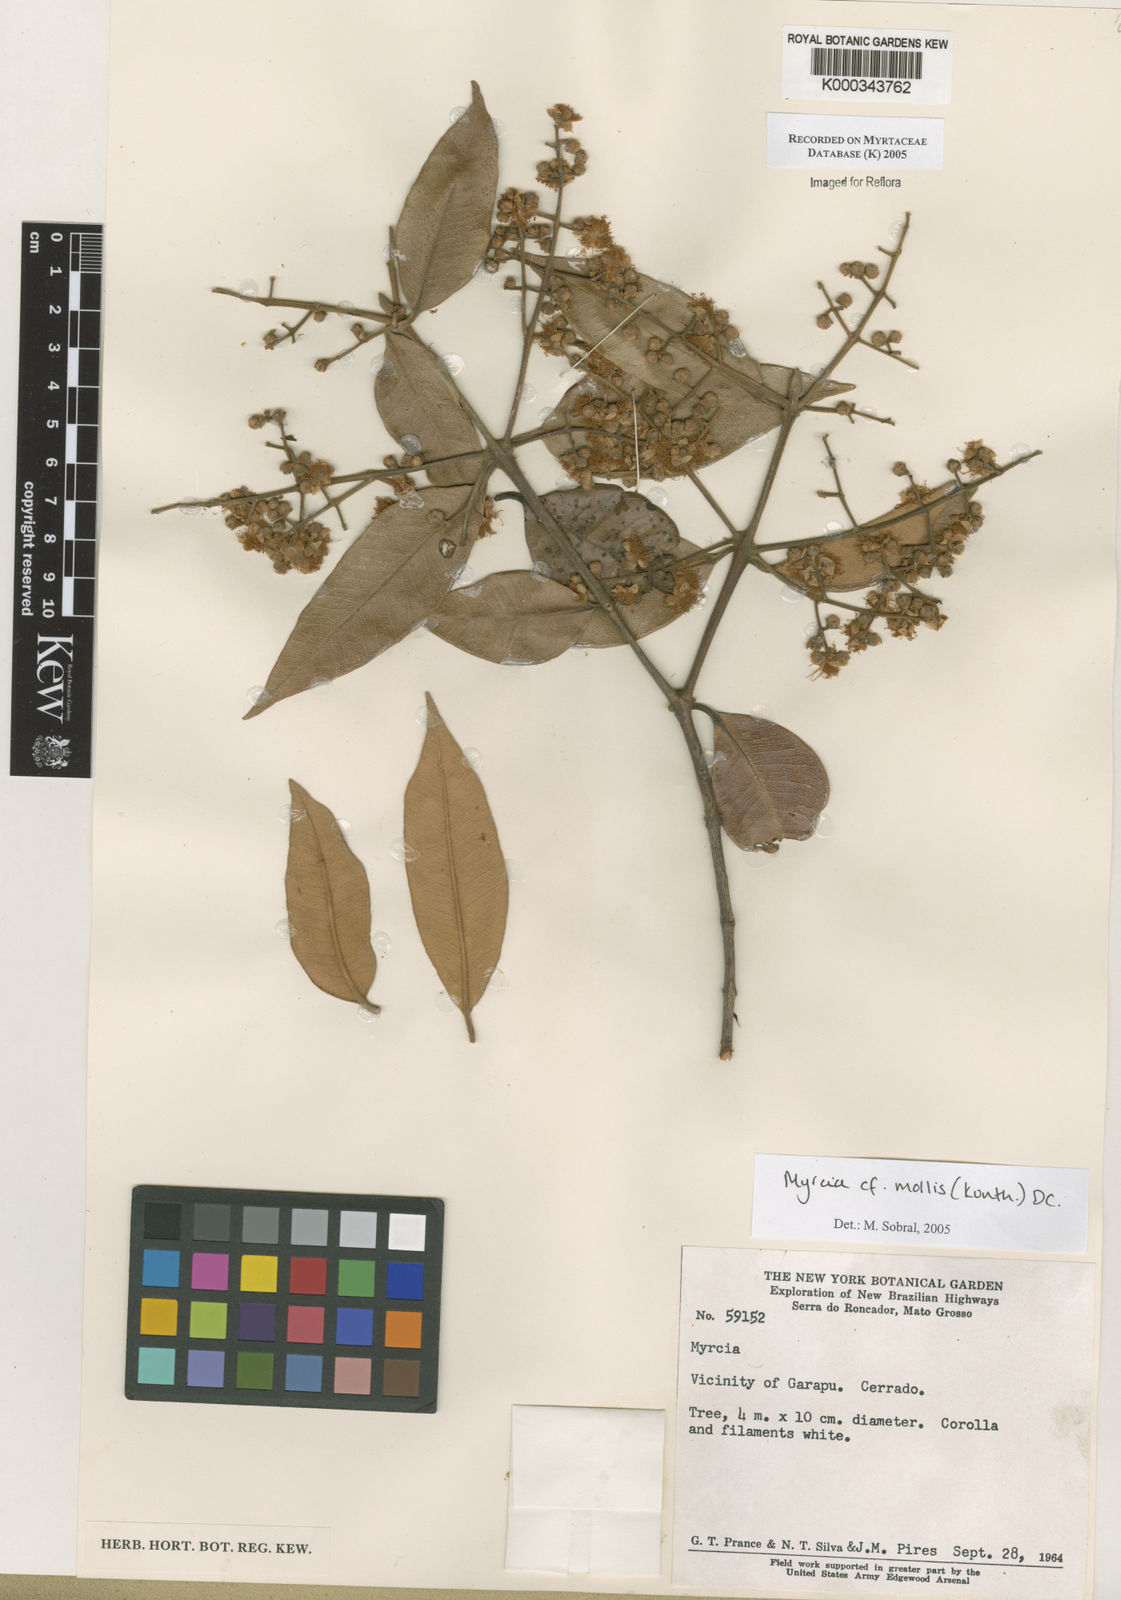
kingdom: Plantae
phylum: Tracheophyta
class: Magnoliopsida
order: Myrtales
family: Myrtaceae
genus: Myrcia
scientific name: Myrcia mollis
